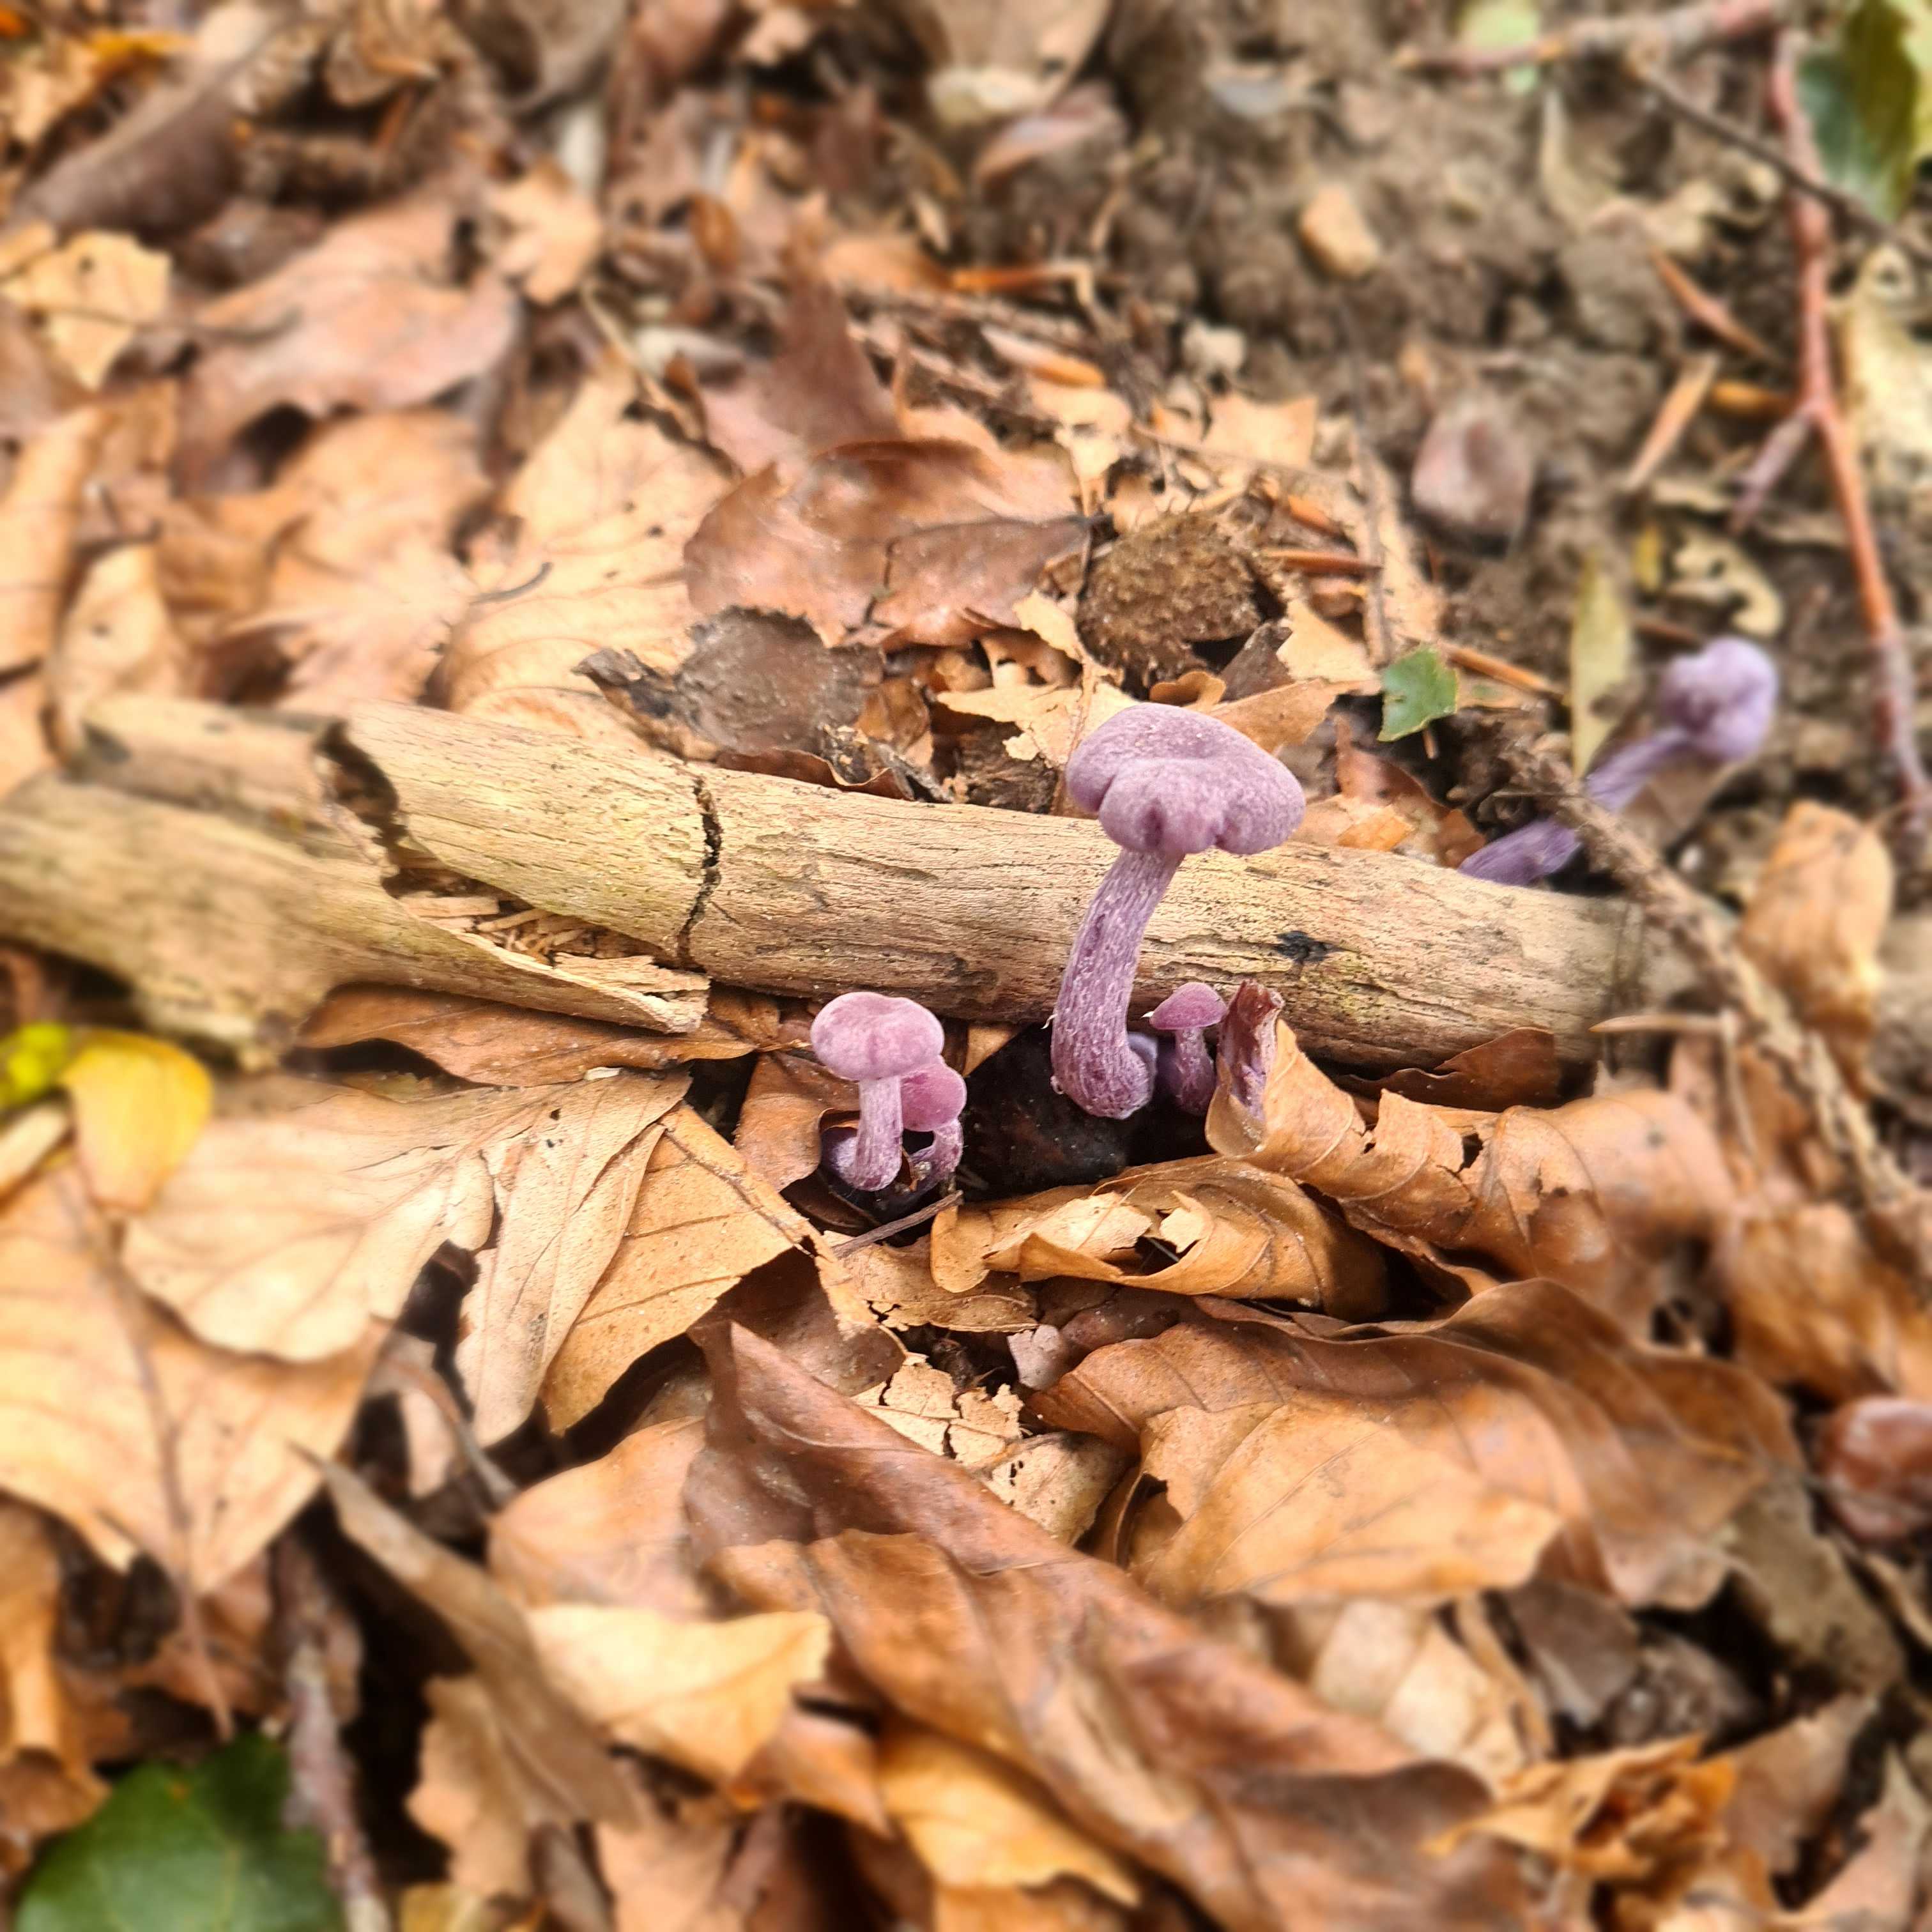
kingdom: Fungi
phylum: Basidiomycota
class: Agaricomycetes
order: Agaricales
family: Hydnangiaceae
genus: Laccaria
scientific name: Laccaria amethystina
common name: violet ametysthat
